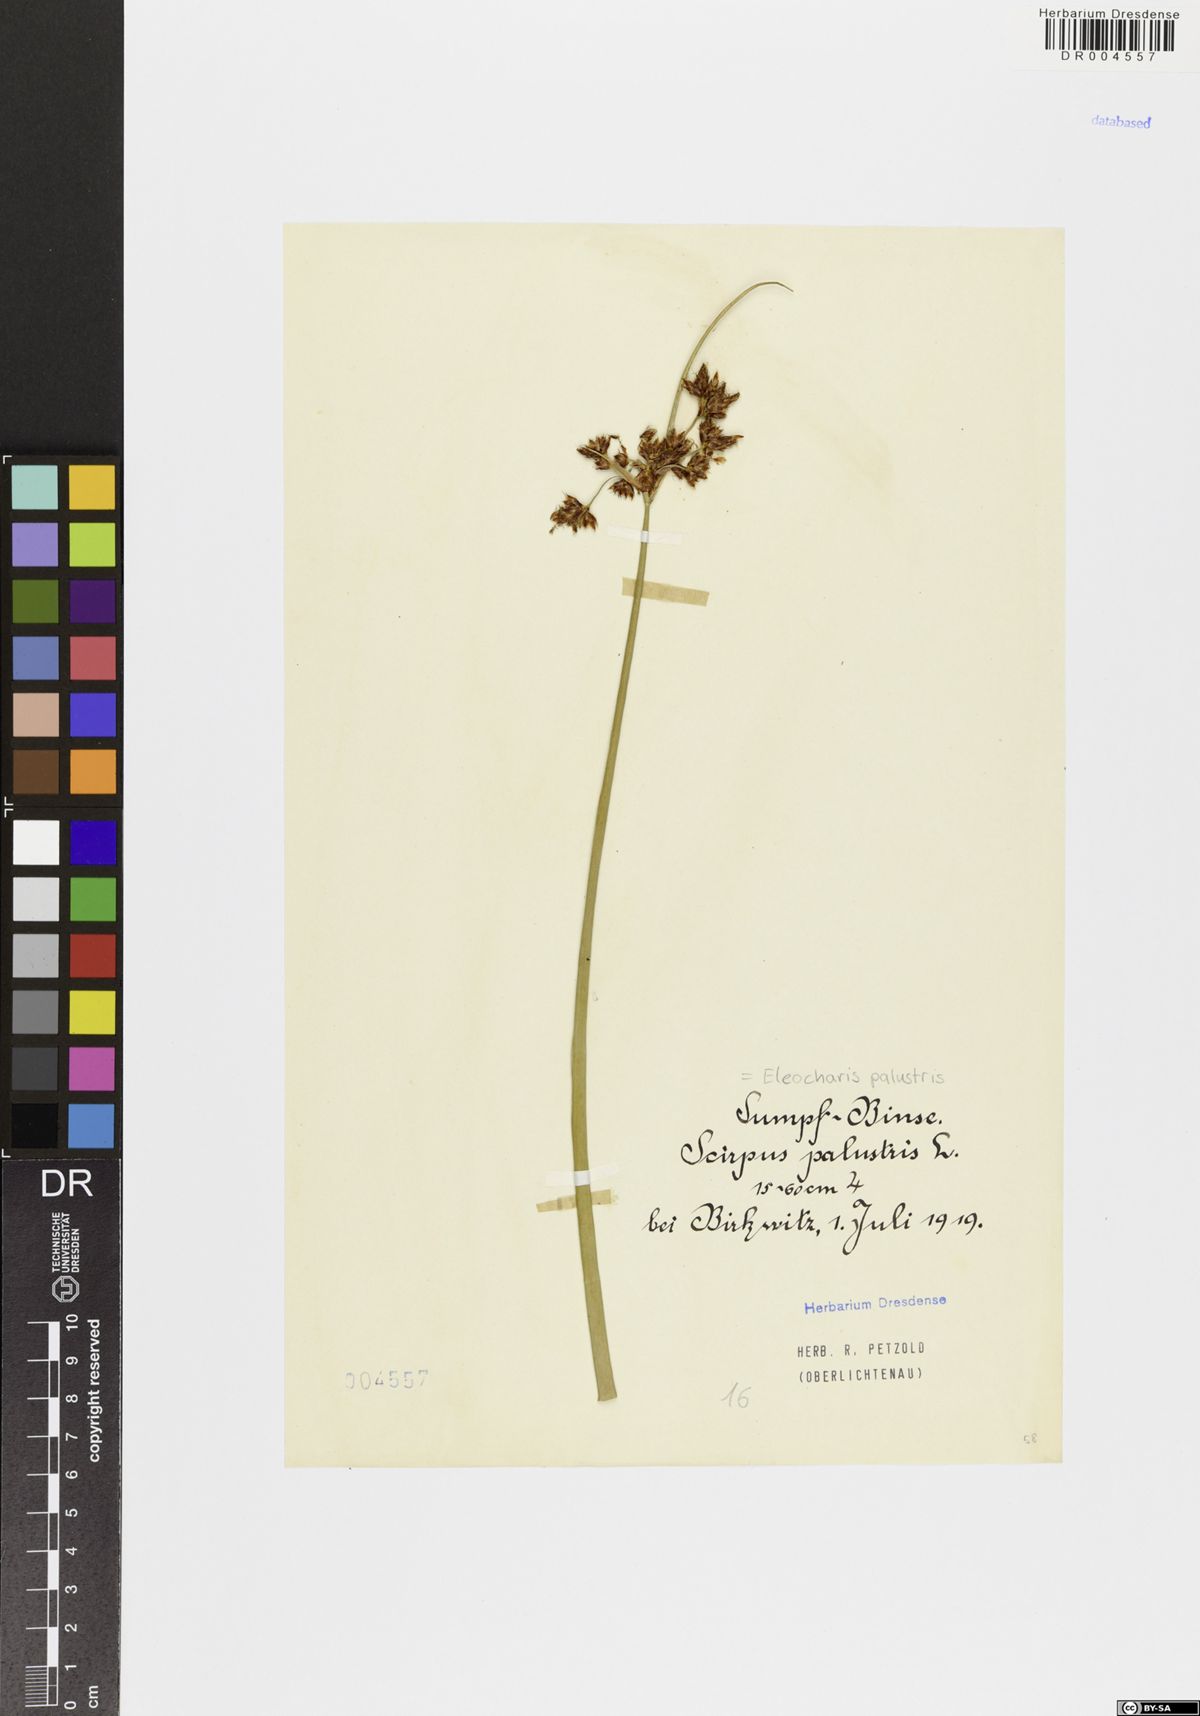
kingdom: Plantae
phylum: Tracheophyta
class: Liliopsida
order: Poales
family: Cyperaceae
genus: Eleocharis
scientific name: Eleocharis palustris
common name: Common spike-rush
